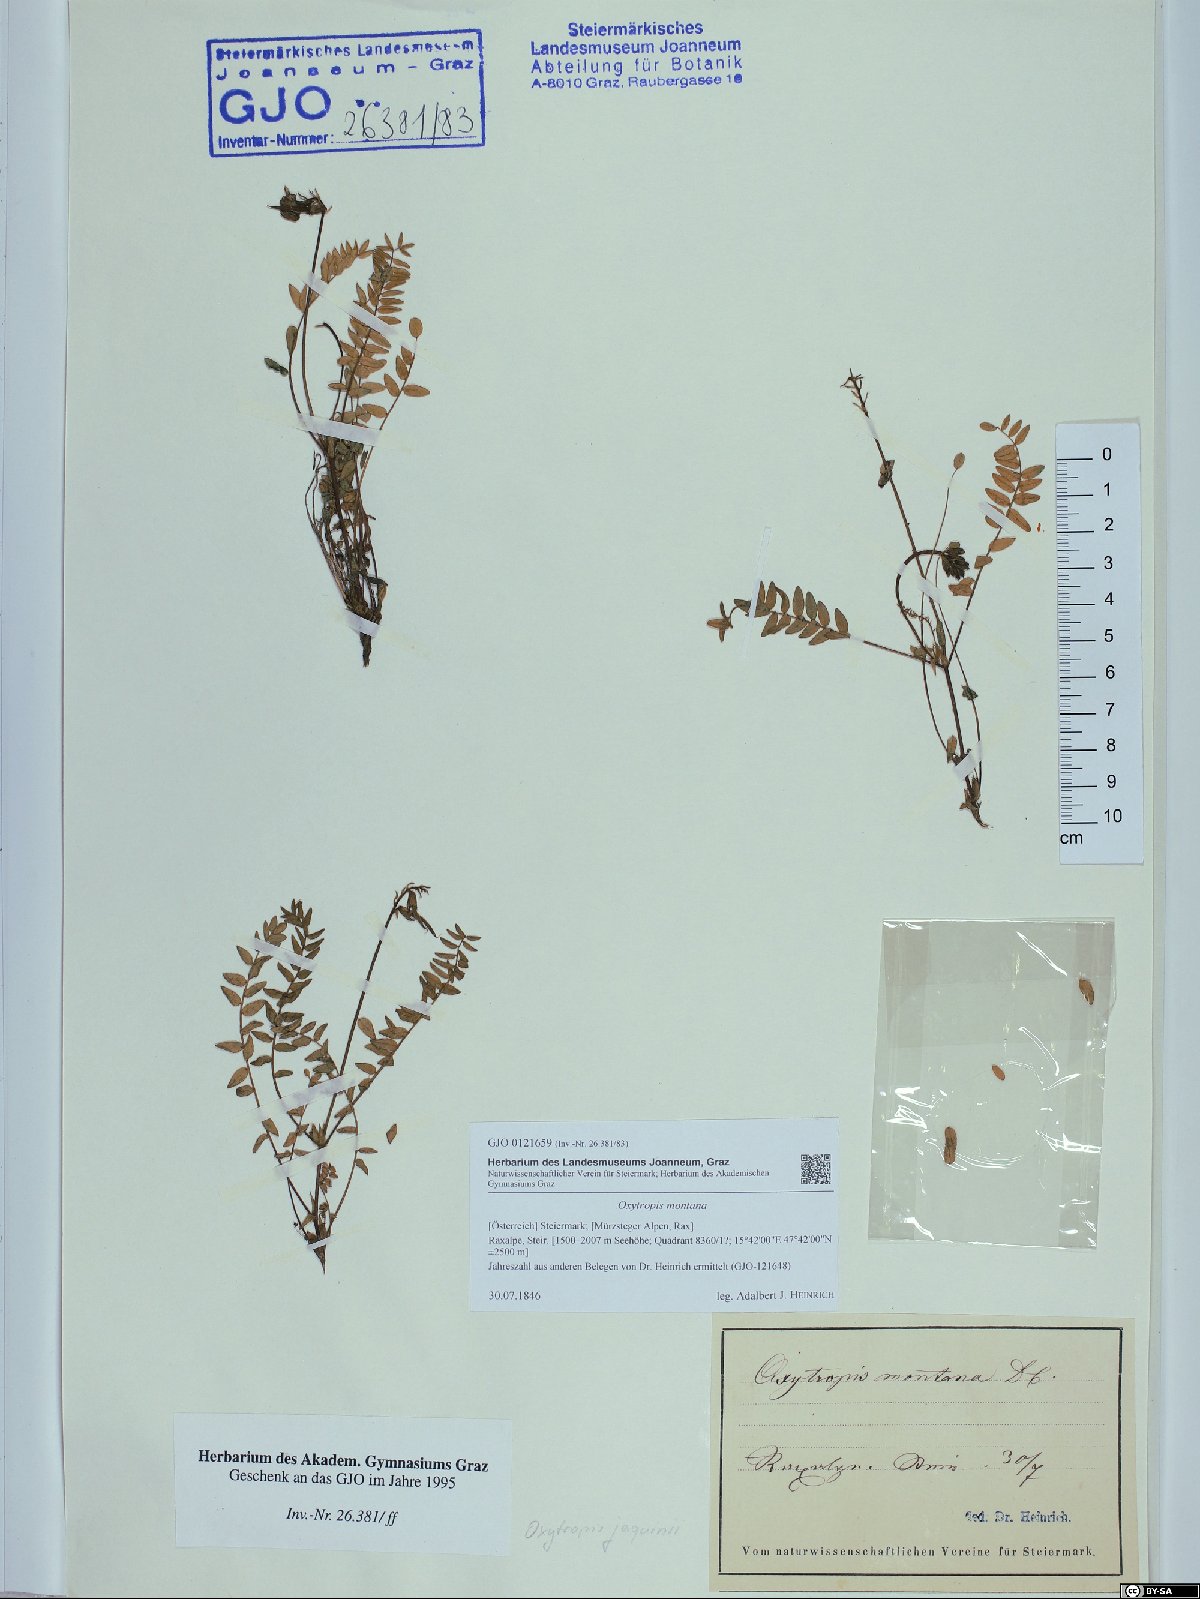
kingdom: Plantae
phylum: Tracheophyta
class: Magnoliopsida
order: Fabales
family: Fabaceae
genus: Oxytropis
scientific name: Oxytropis montana
